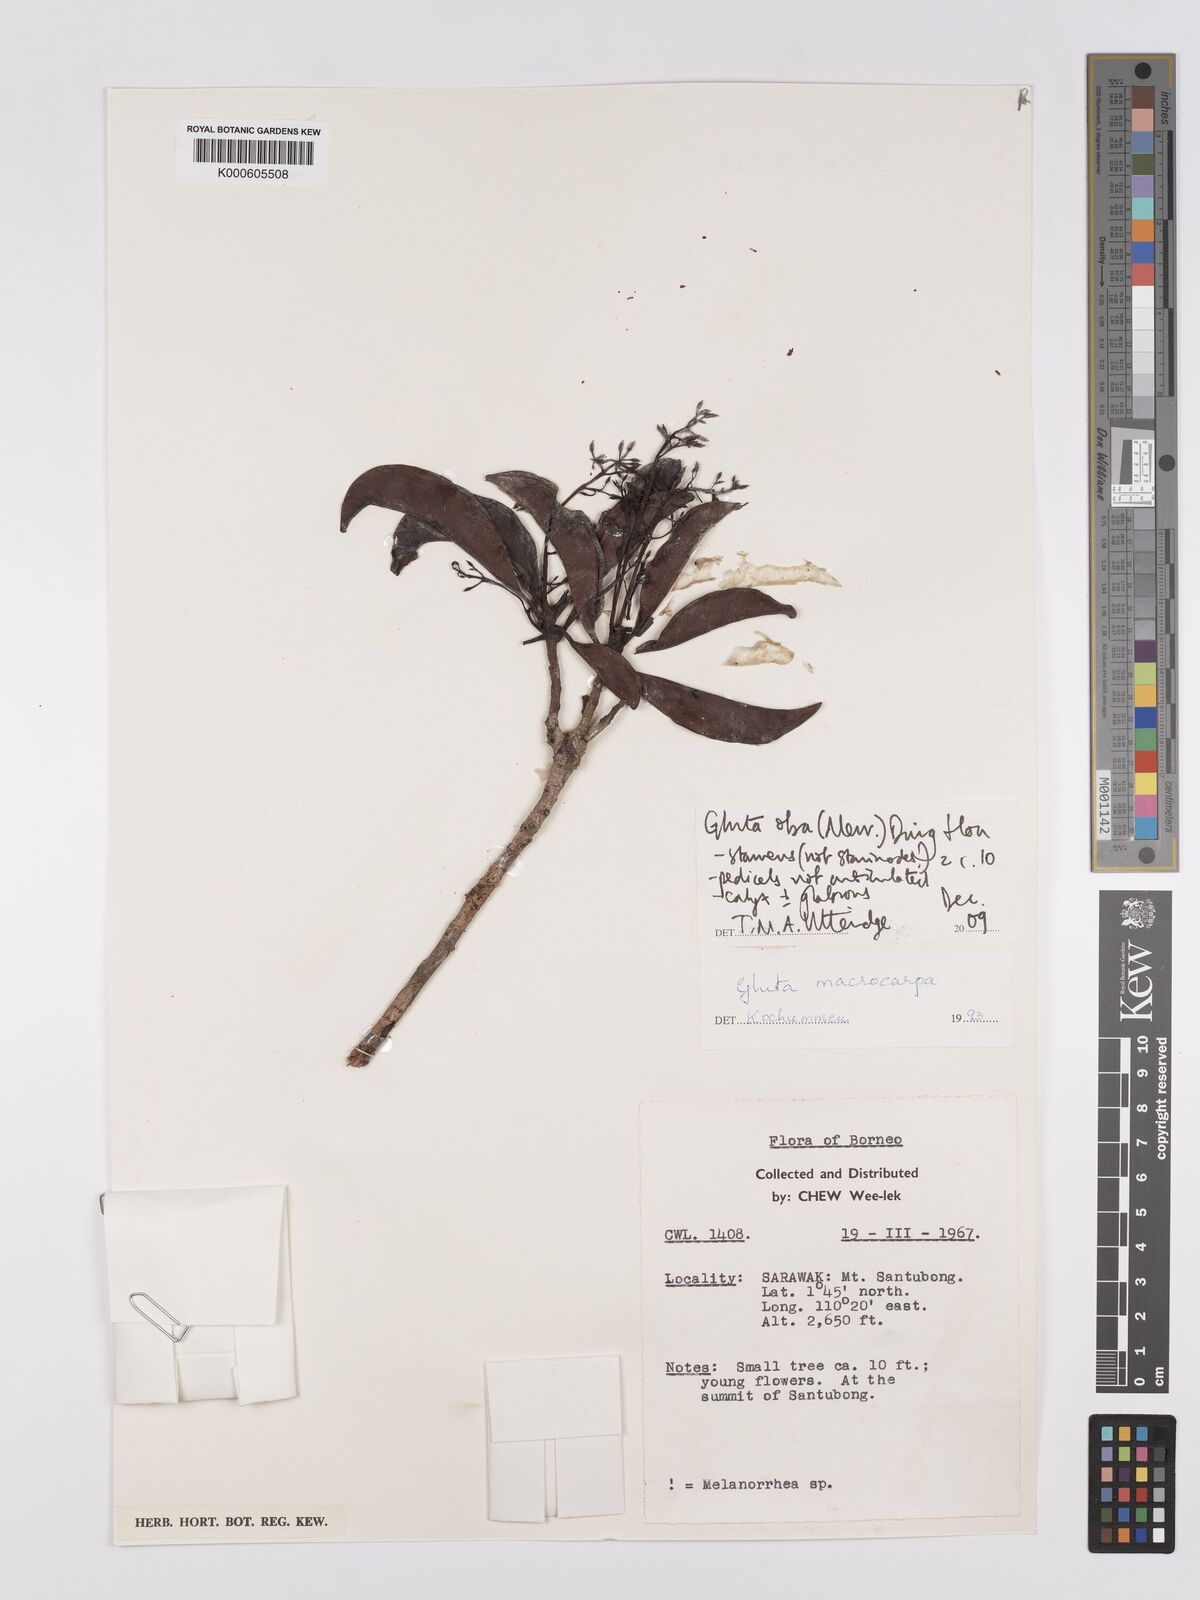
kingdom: Plantae
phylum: Tracheophyta
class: Magnoliopsida
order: Sapindales
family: Anacardiaceae
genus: Gluta
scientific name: Gluta oba
